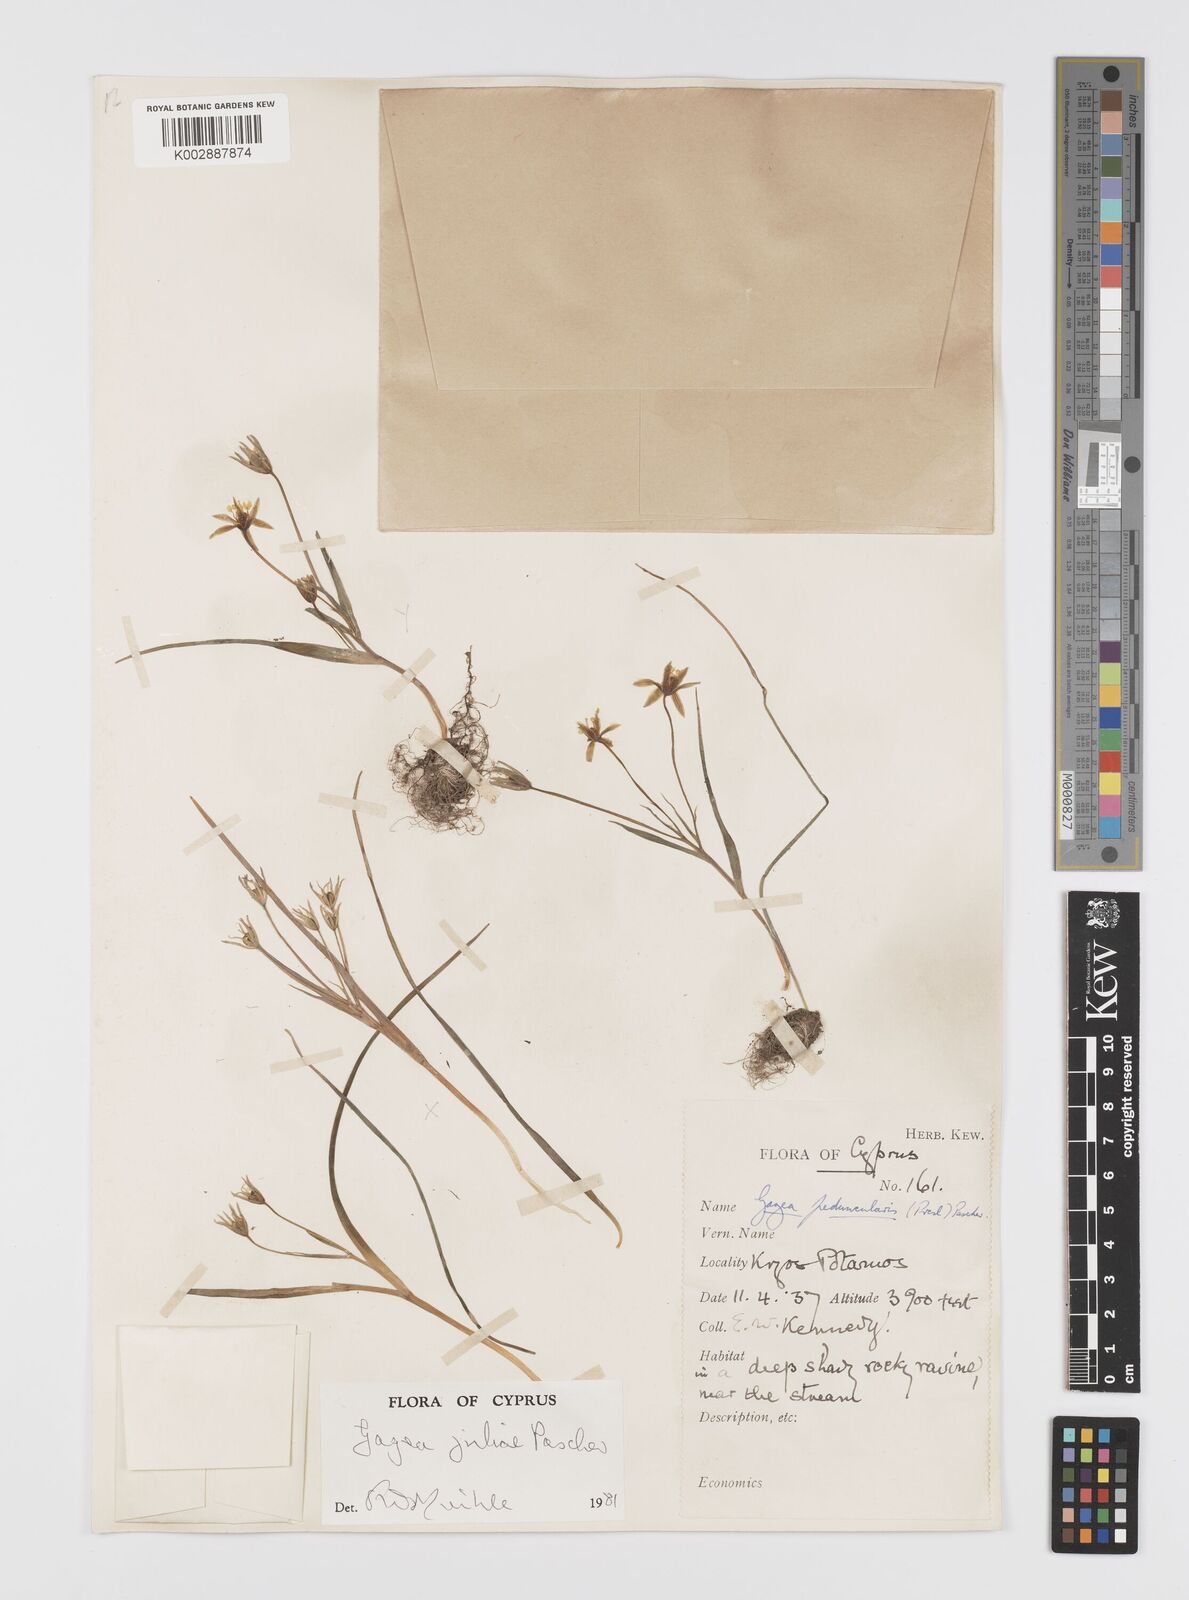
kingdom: Plantae
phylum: Tracheophyta
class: Liliopsida
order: Liliales
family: Liliaceae
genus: Gagea
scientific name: Gagea juliae
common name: Julia’s gagea
